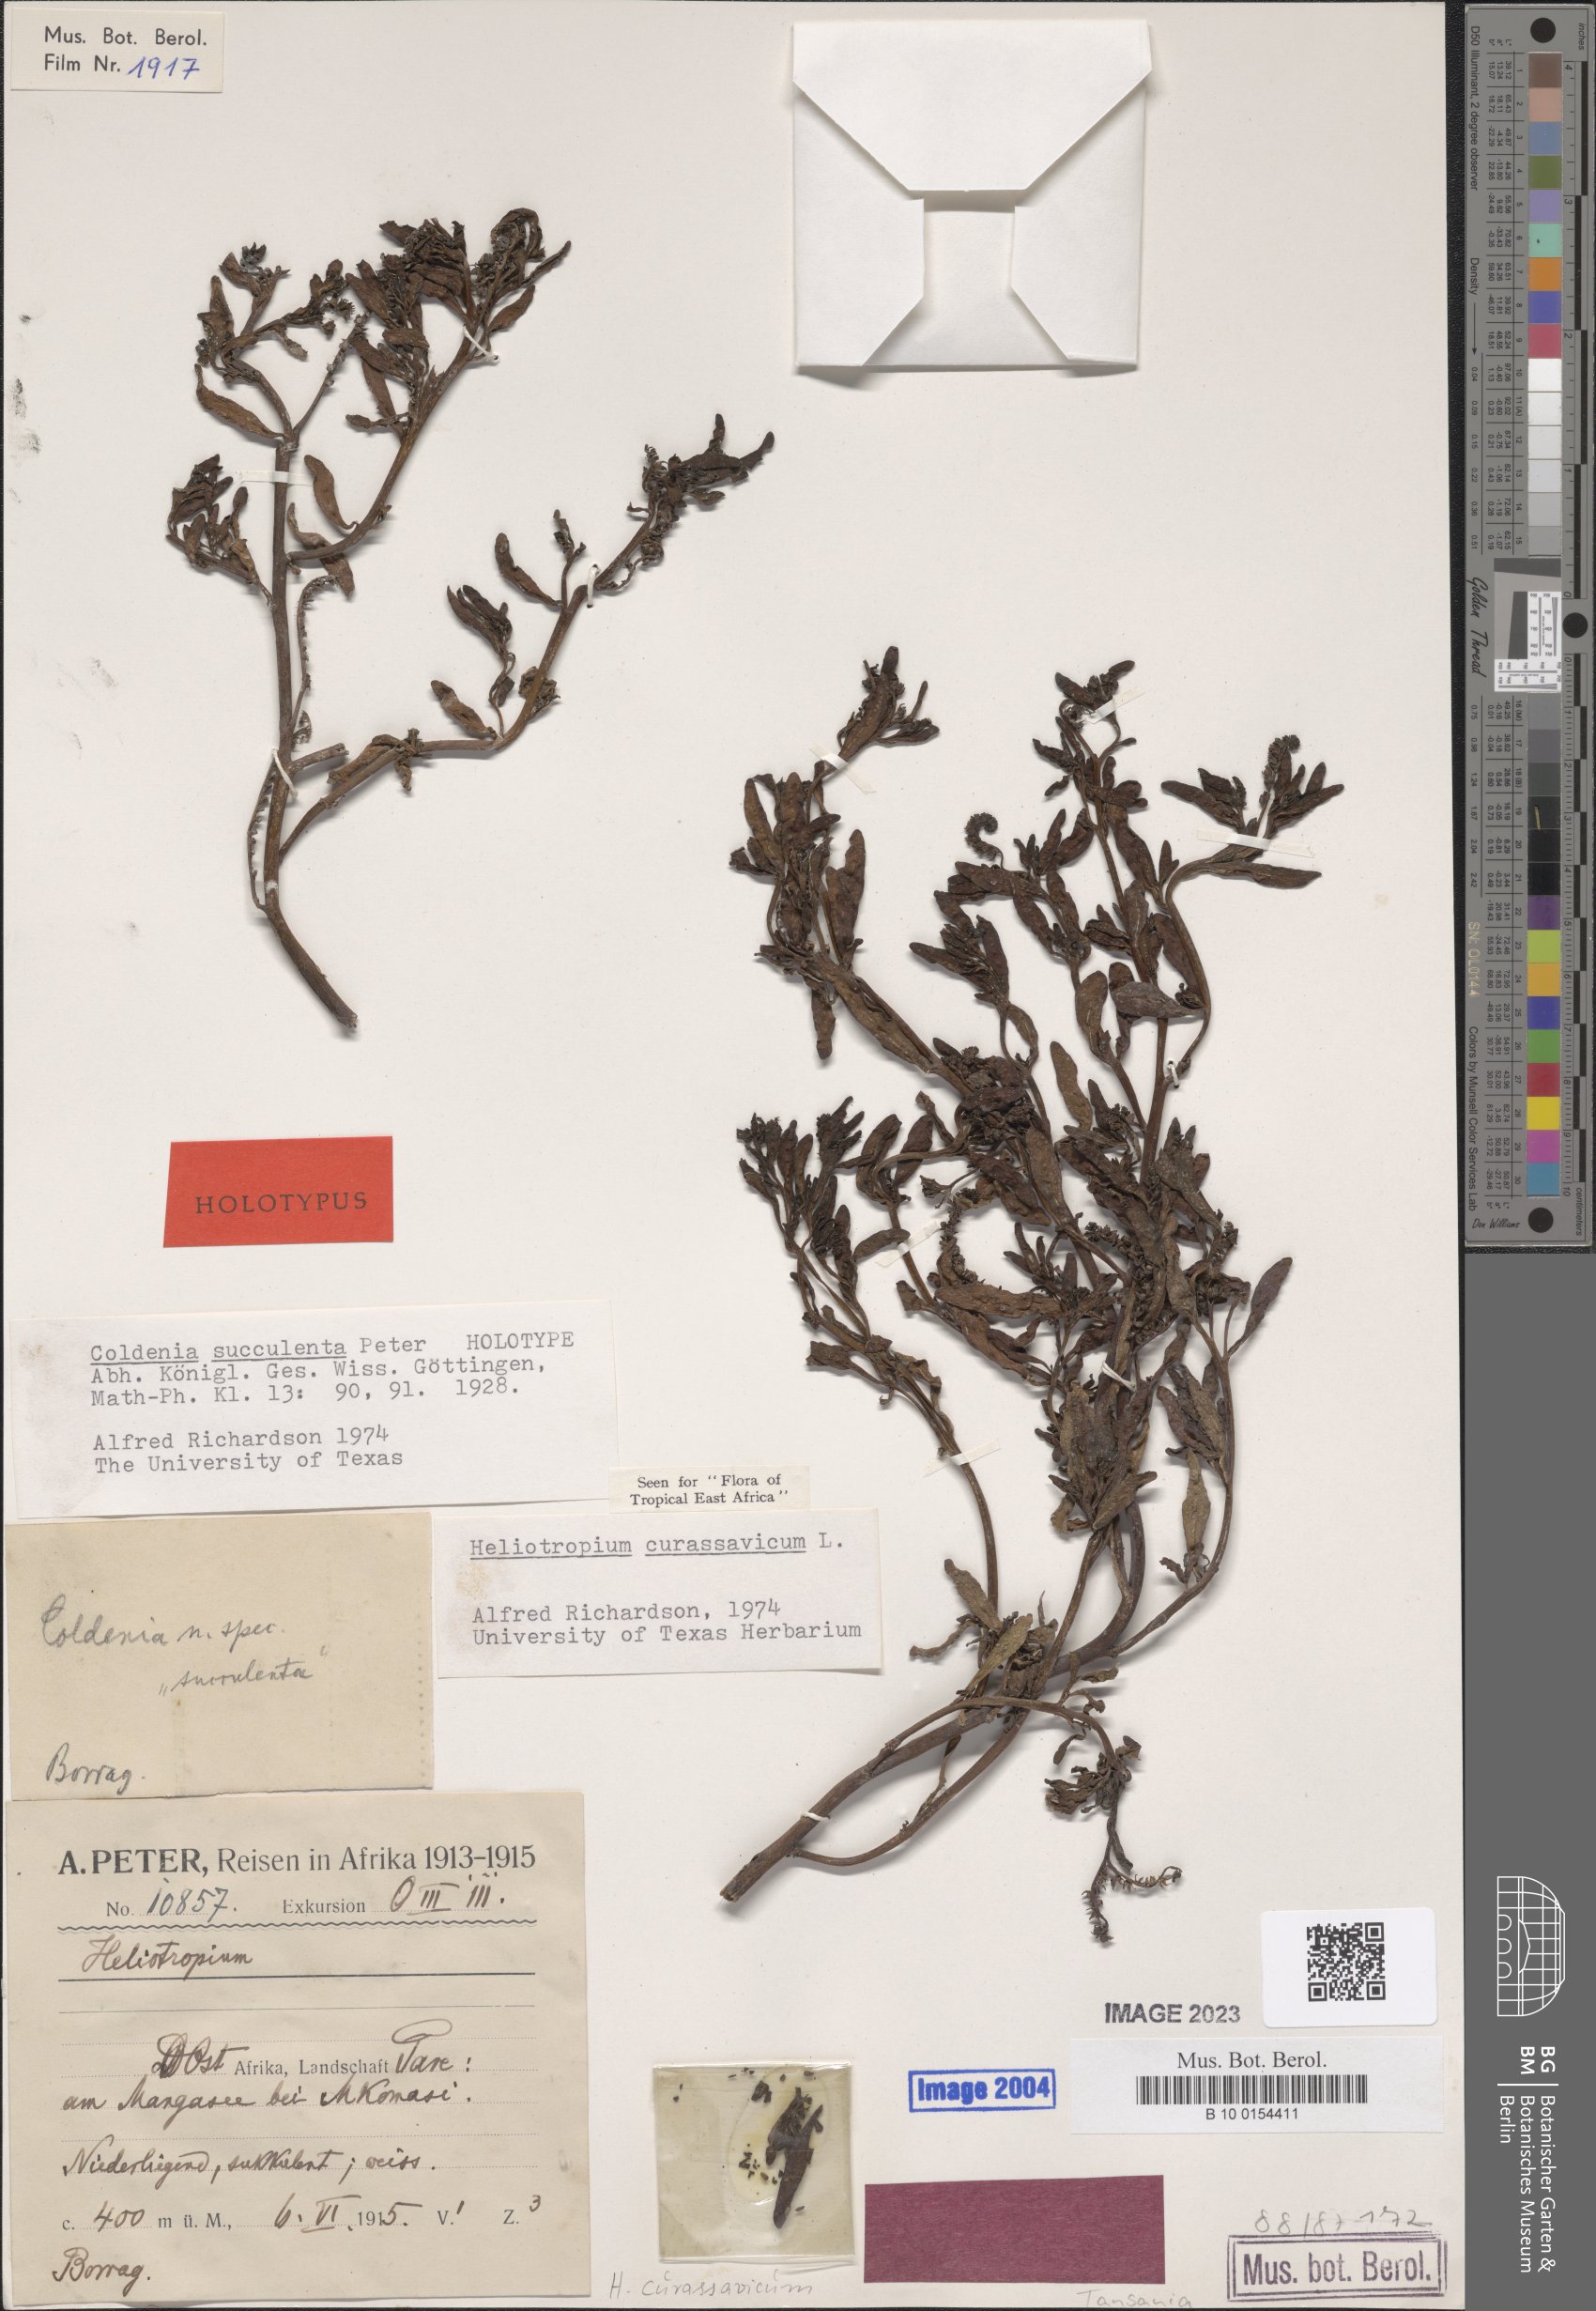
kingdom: Plantae
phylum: Tracheophyta
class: Magnoliopsida
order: Boraginales
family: Heliotropiaceae
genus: Heliotropium
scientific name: Heliotropium curassavicum
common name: Seaside heliotrope
